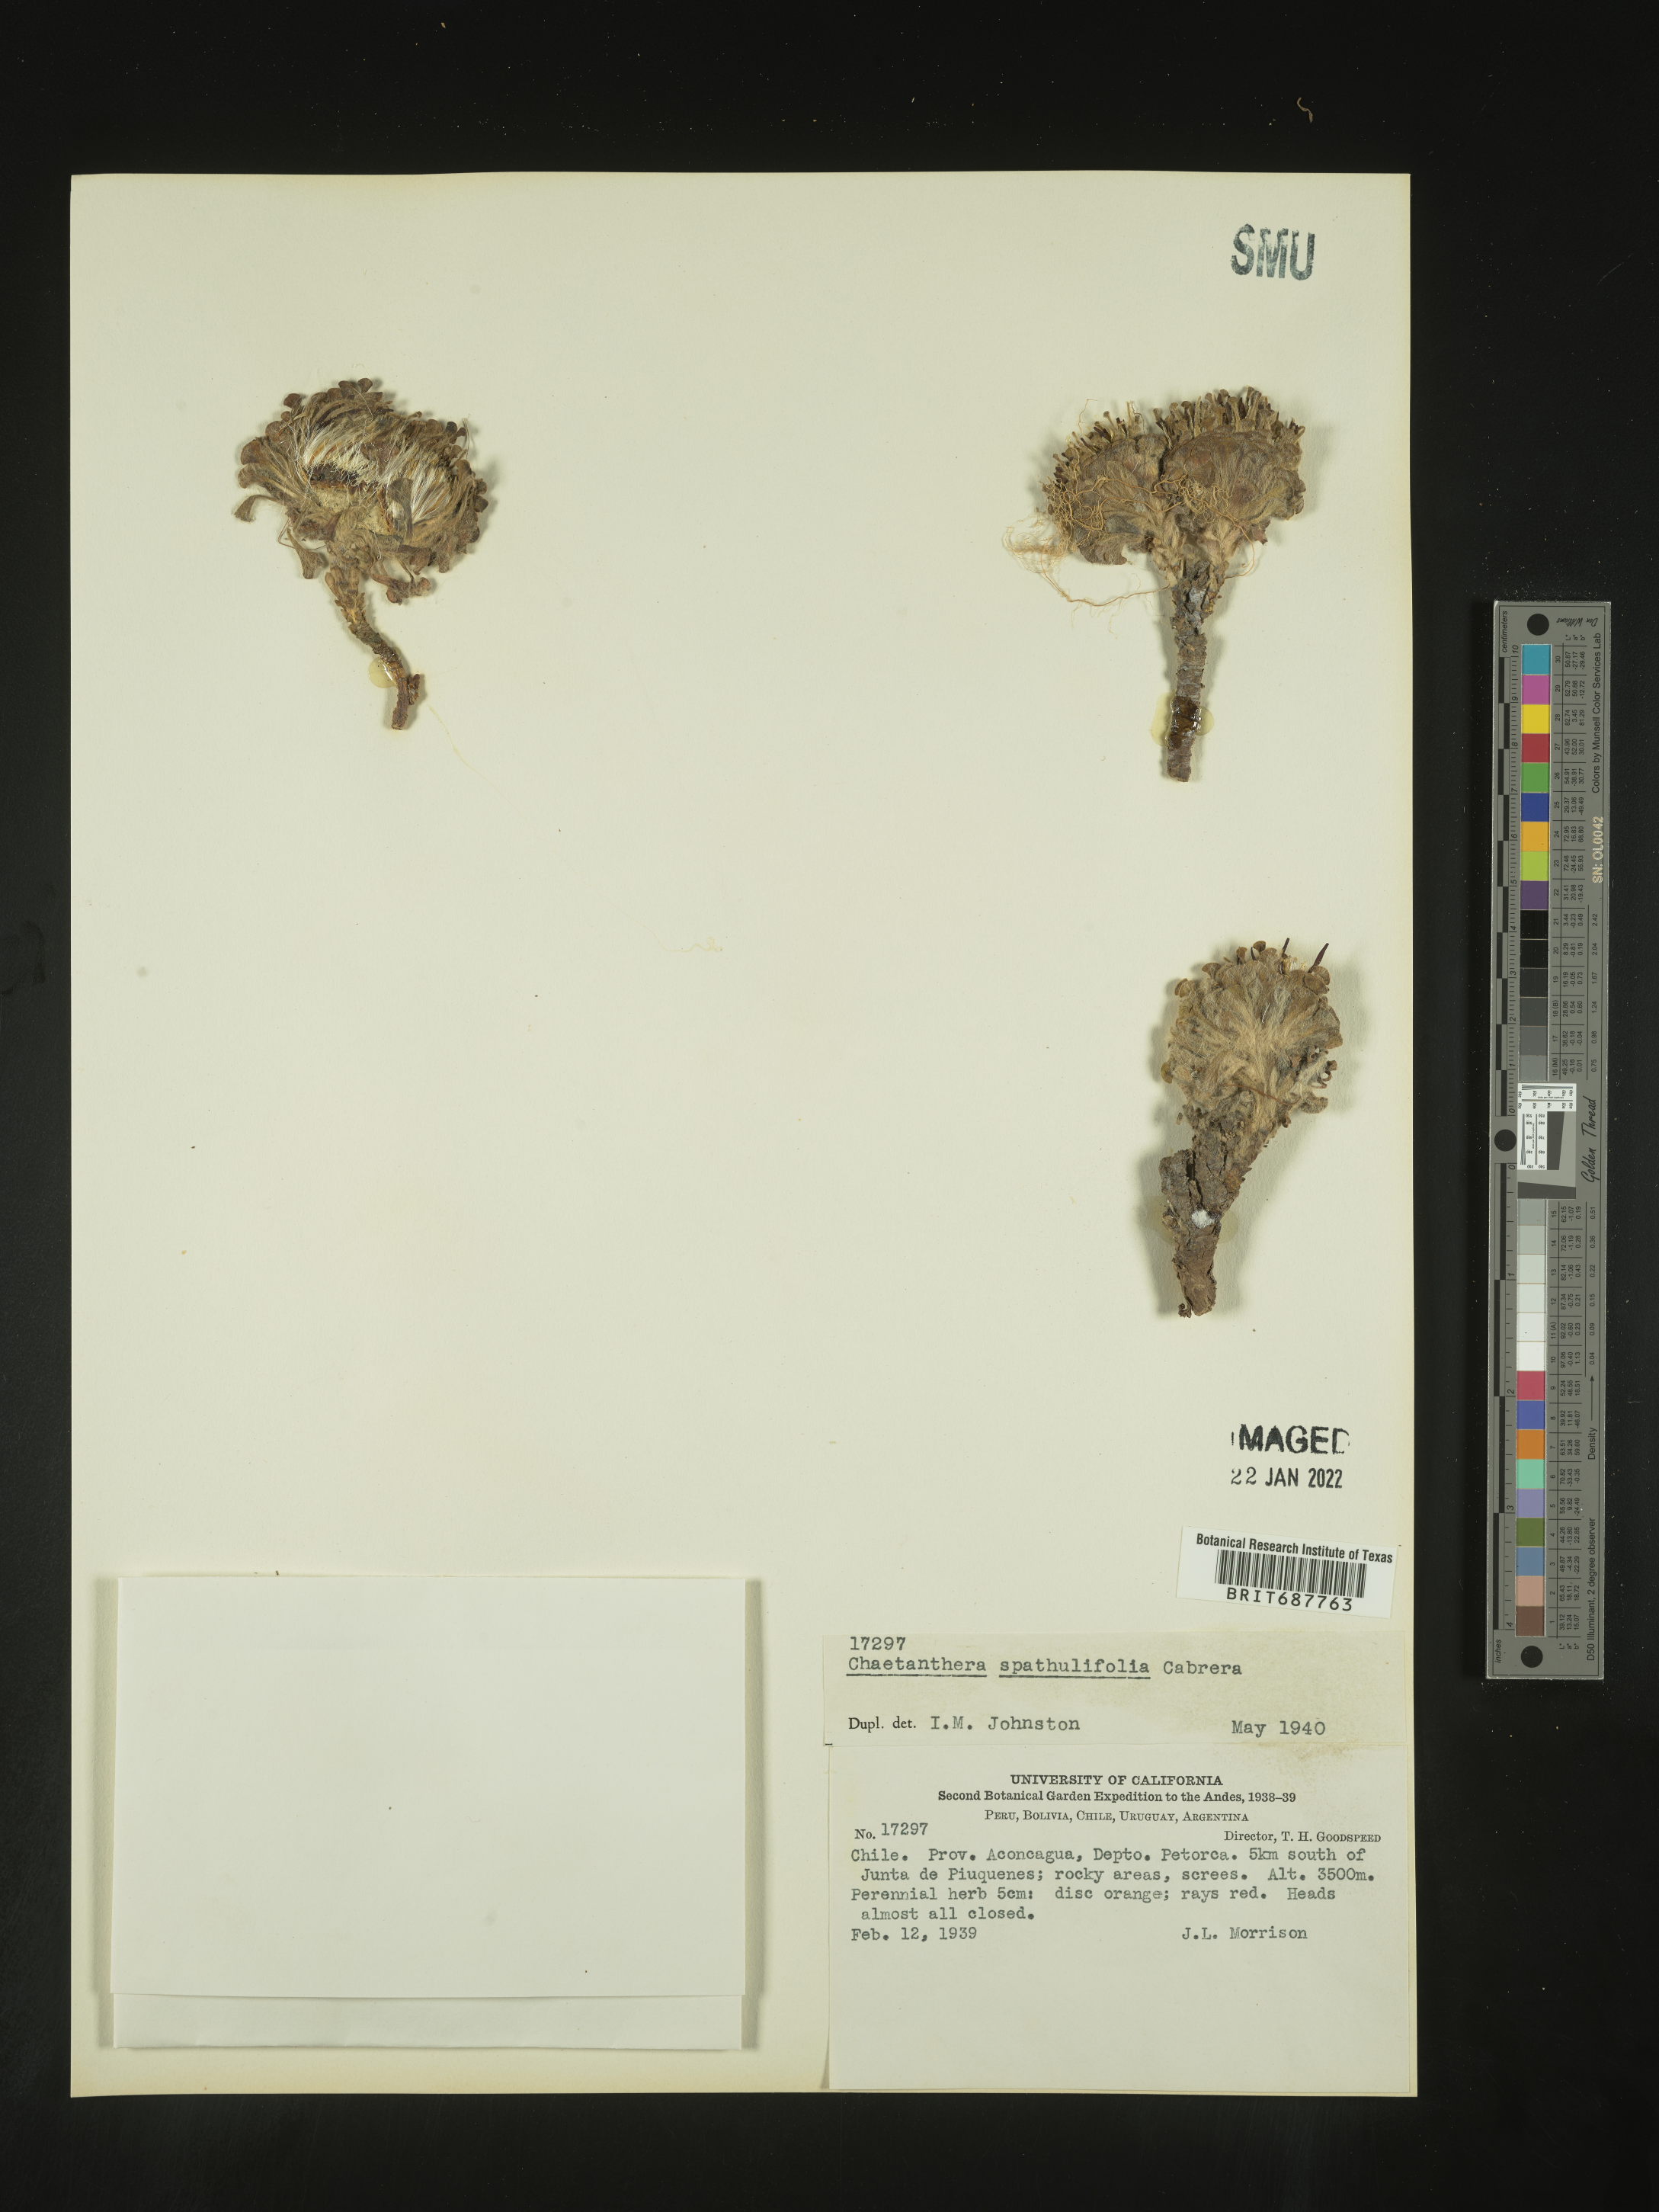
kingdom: Plantae
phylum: Tracheophyta
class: Magnoliopsida
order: Asterales
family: Asteraceae
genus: Chaetanthera
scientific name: Chaetanthera
